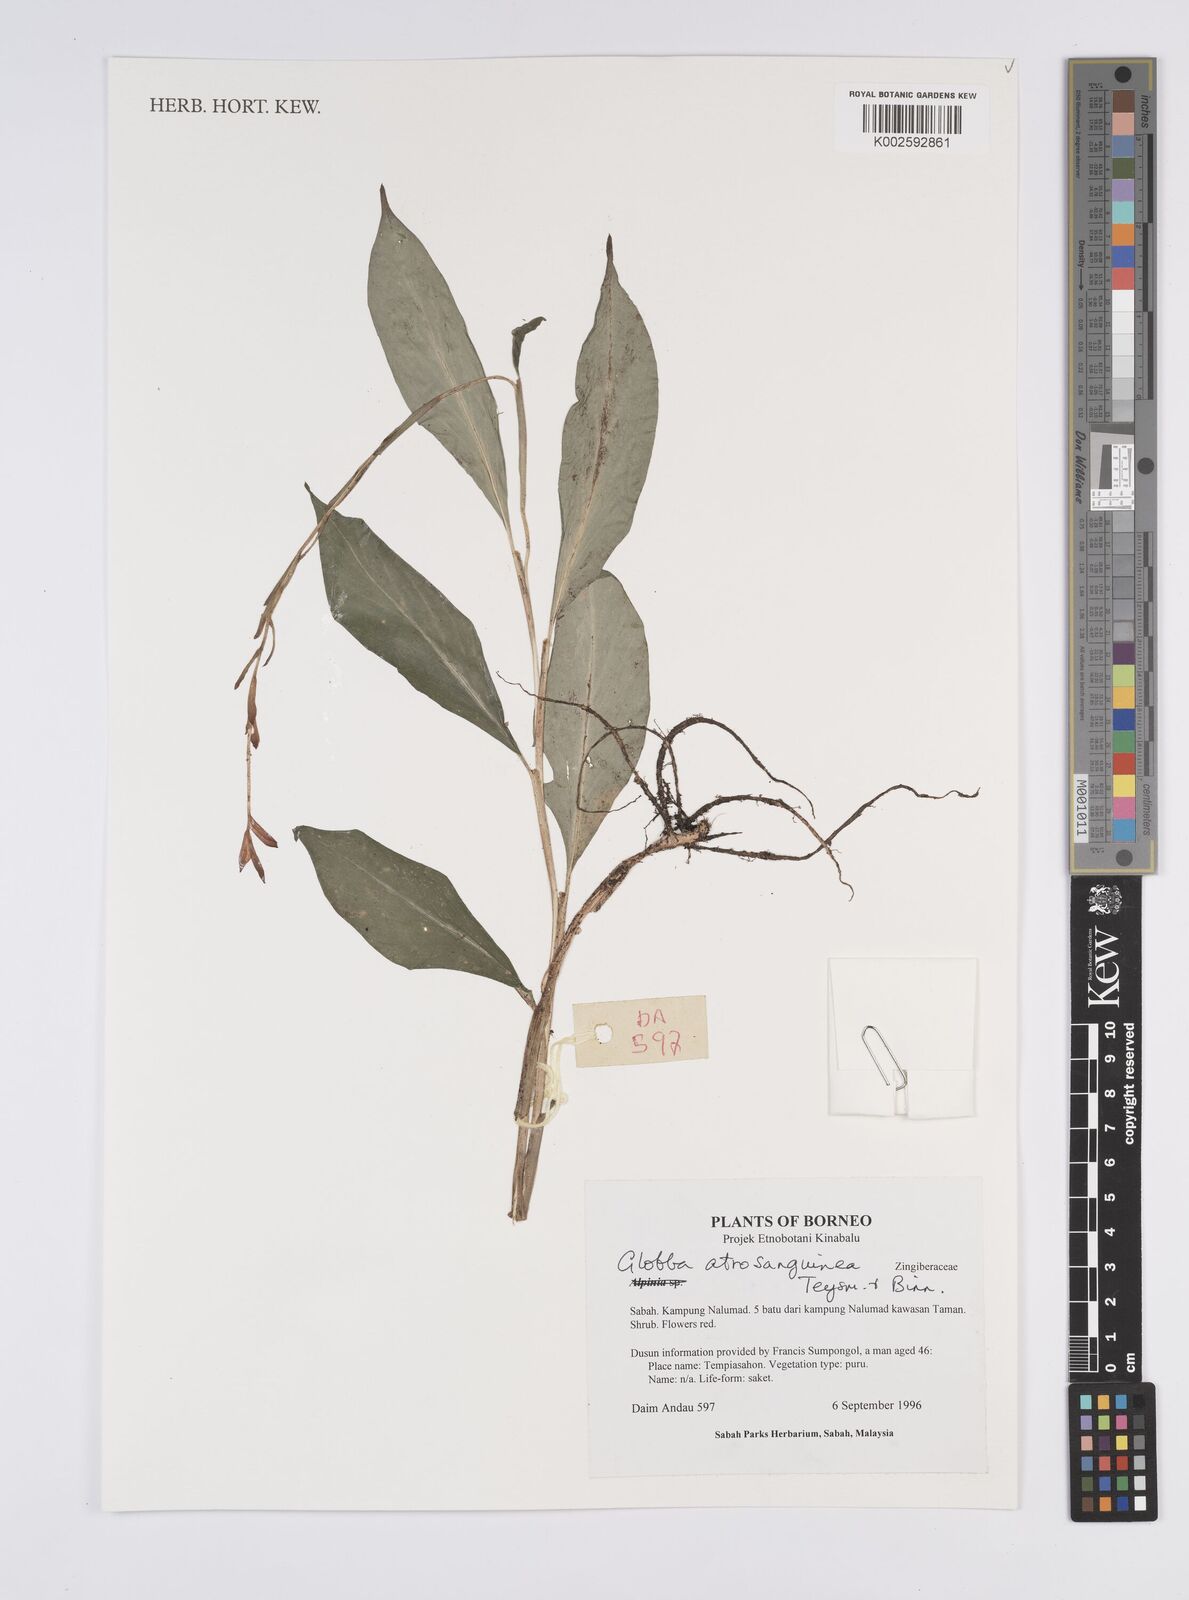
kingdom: Plantae
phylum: Tracheophyta
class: Liliopsida
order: Zingiberales
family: Zingiberaceae
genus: Globba
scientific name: Globba atrosanguinea
